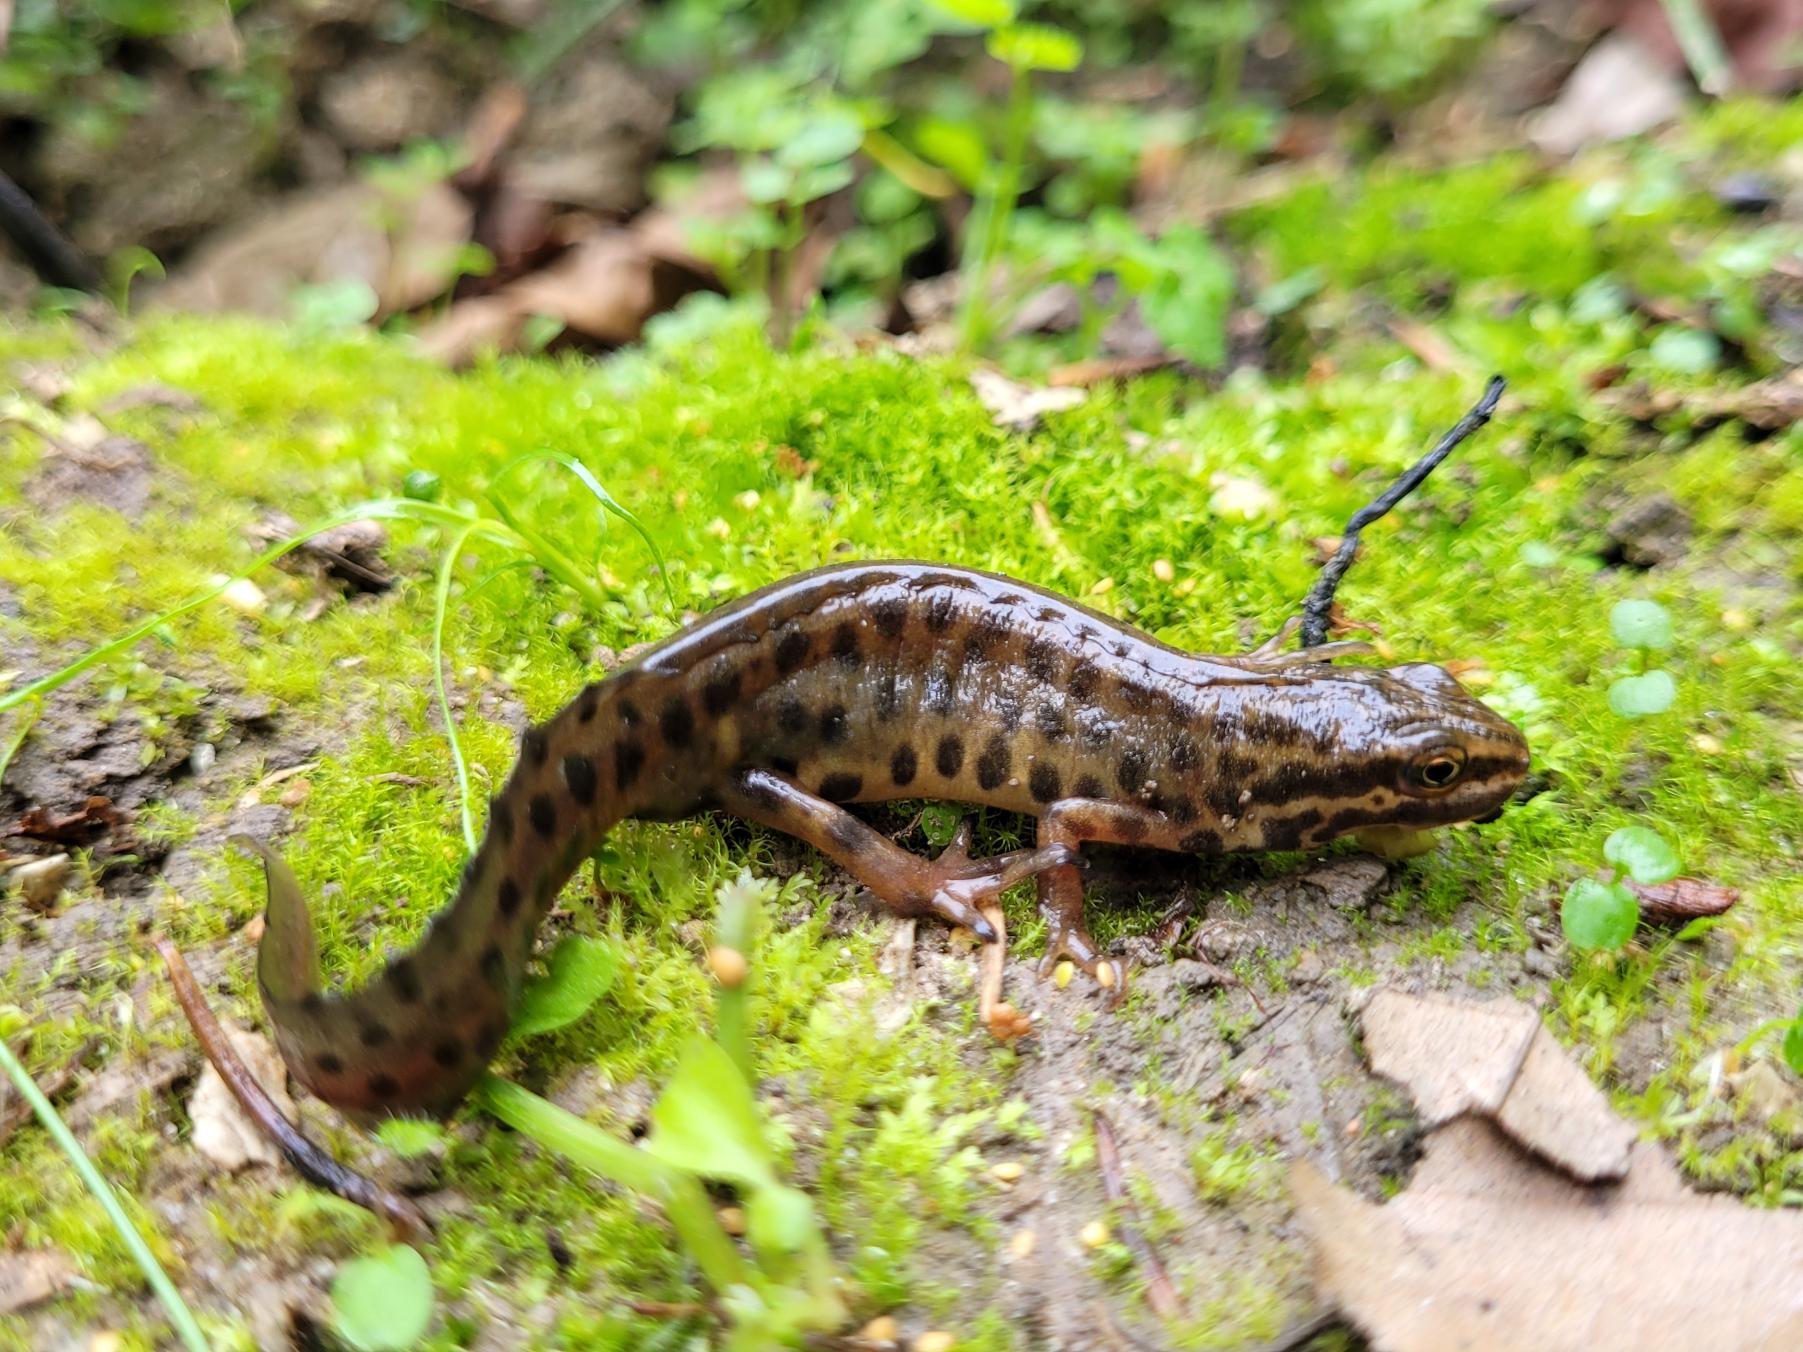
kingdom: Animalia
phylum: Chordata
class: Amphibia
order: Caudata
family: Salamandridae
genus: Lissotriton
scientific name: Lissotriton vulgaris
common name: Lille vandsalamander
